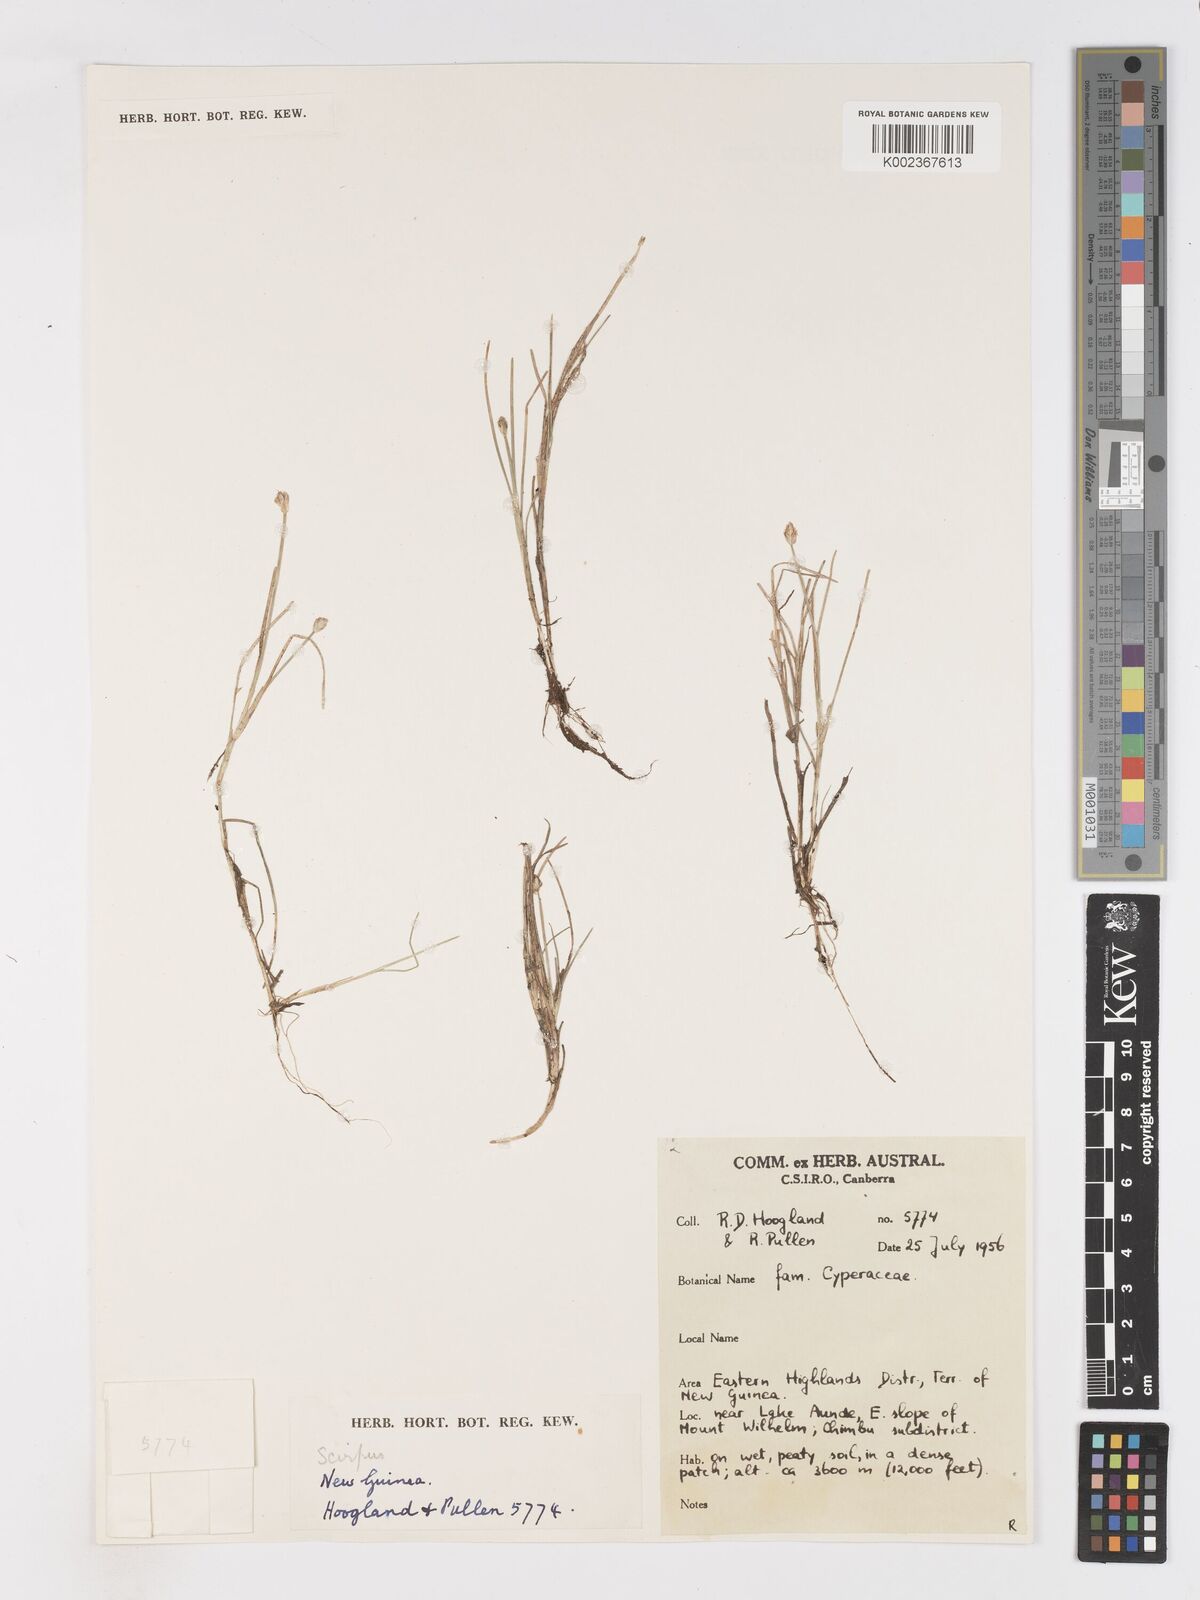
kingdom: Plantae
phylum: Tracheophyta
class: Liliopsida
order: Poales
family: Cyperaceae
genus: Isolepis
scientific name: Isolepis crassiuscula
